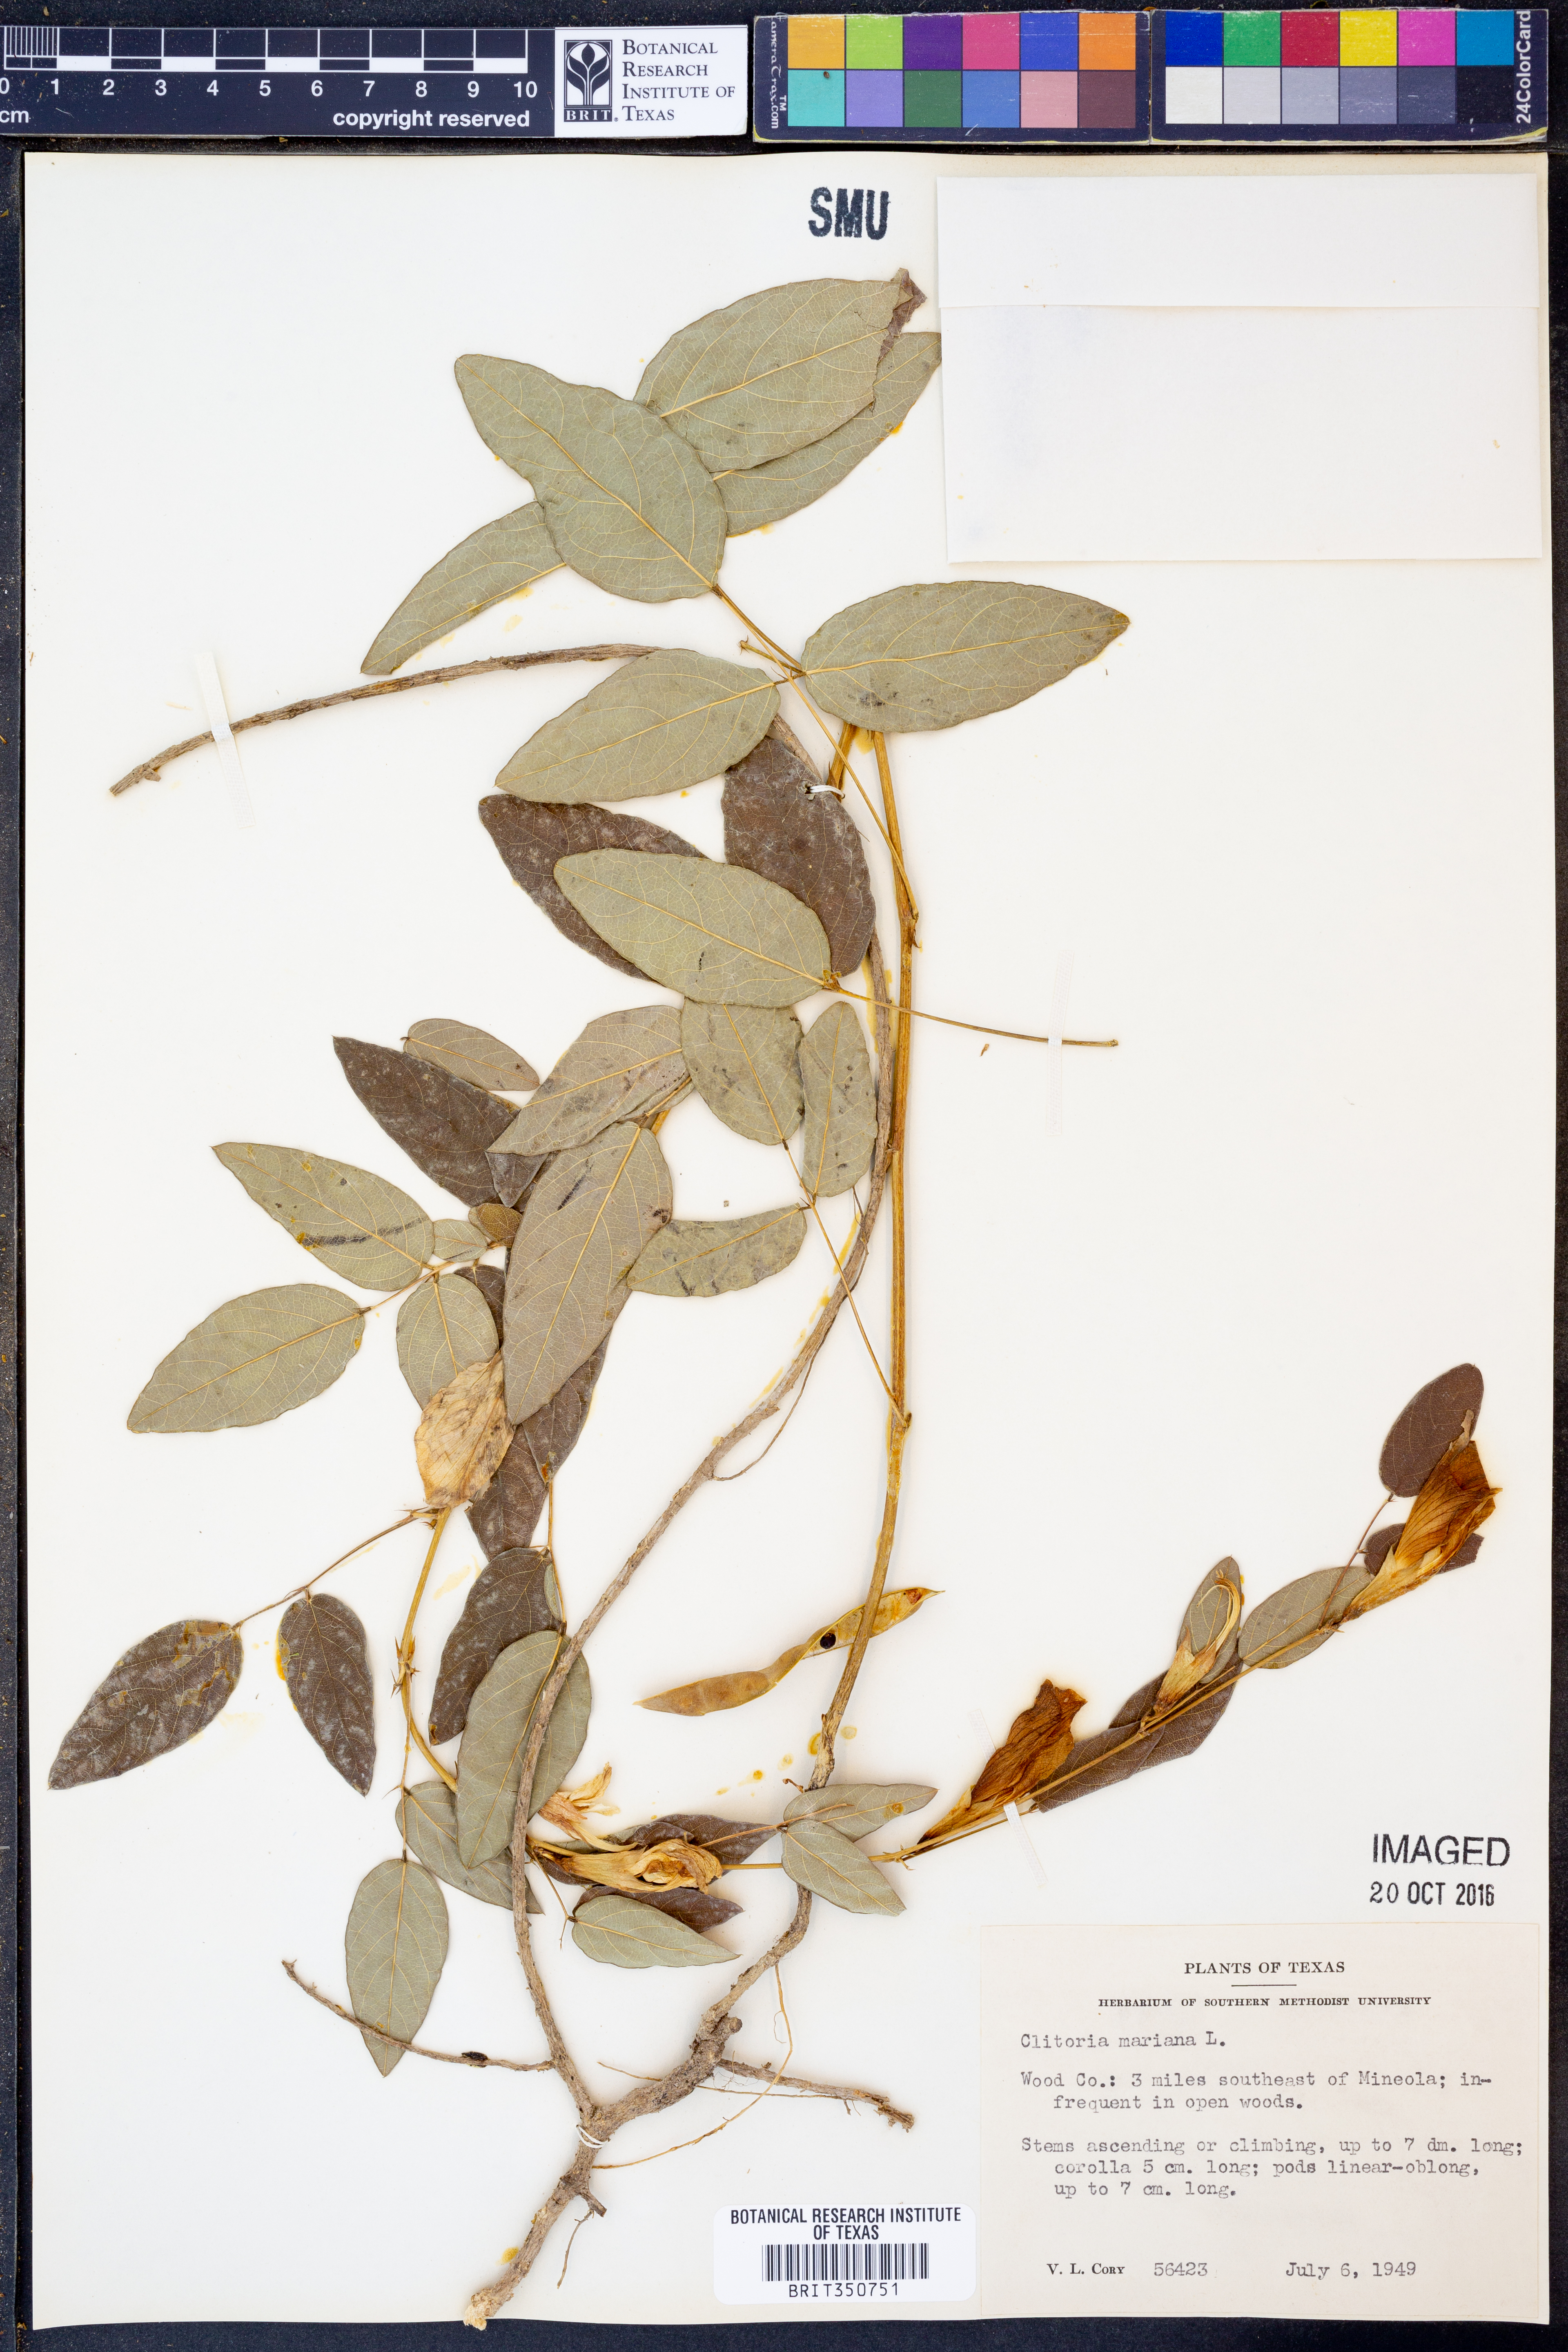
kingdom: Plantae
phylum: Tracheophyta
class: Magnoliopsida
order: Fabales
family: Fabaceae
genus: Clitoria
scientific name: Clitoria mariana
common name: Butterfly-pea
